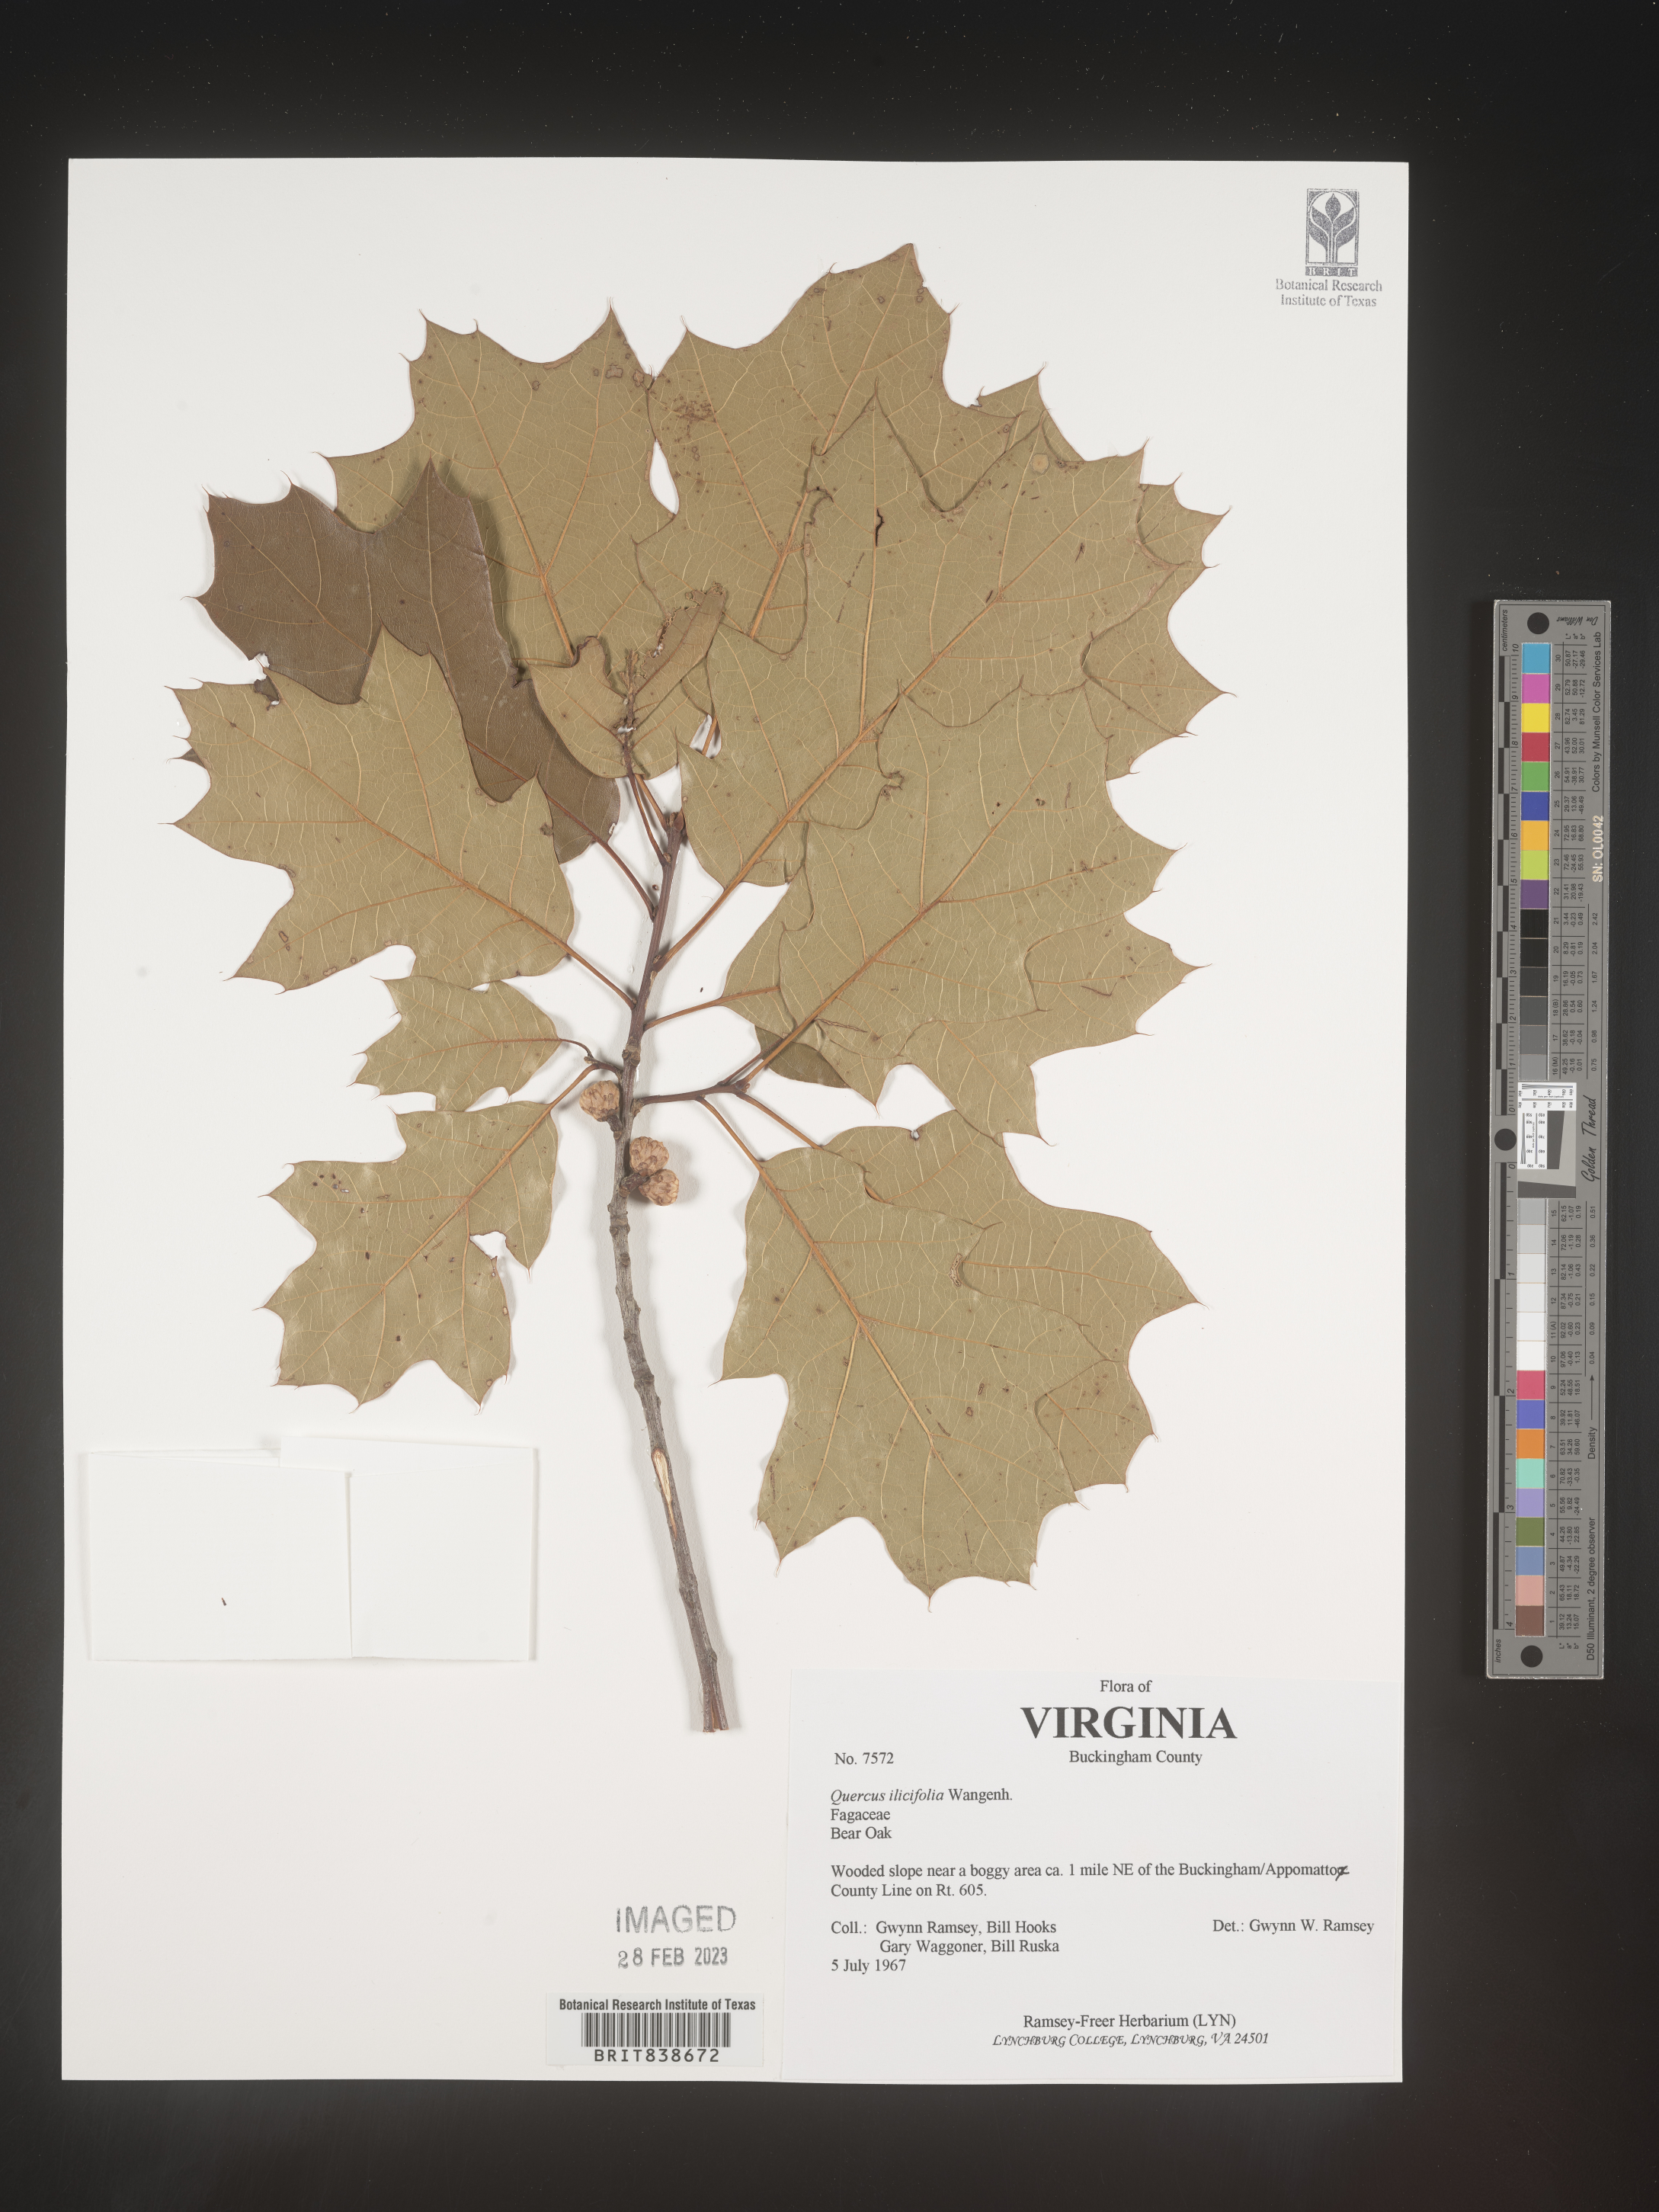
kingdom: Plantae
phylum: Tracheophyta
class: Magnoliopsida
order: Fagales
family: Fagaceae
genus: Quercus
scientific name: Quercus ilicifolia
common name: Bear oak
